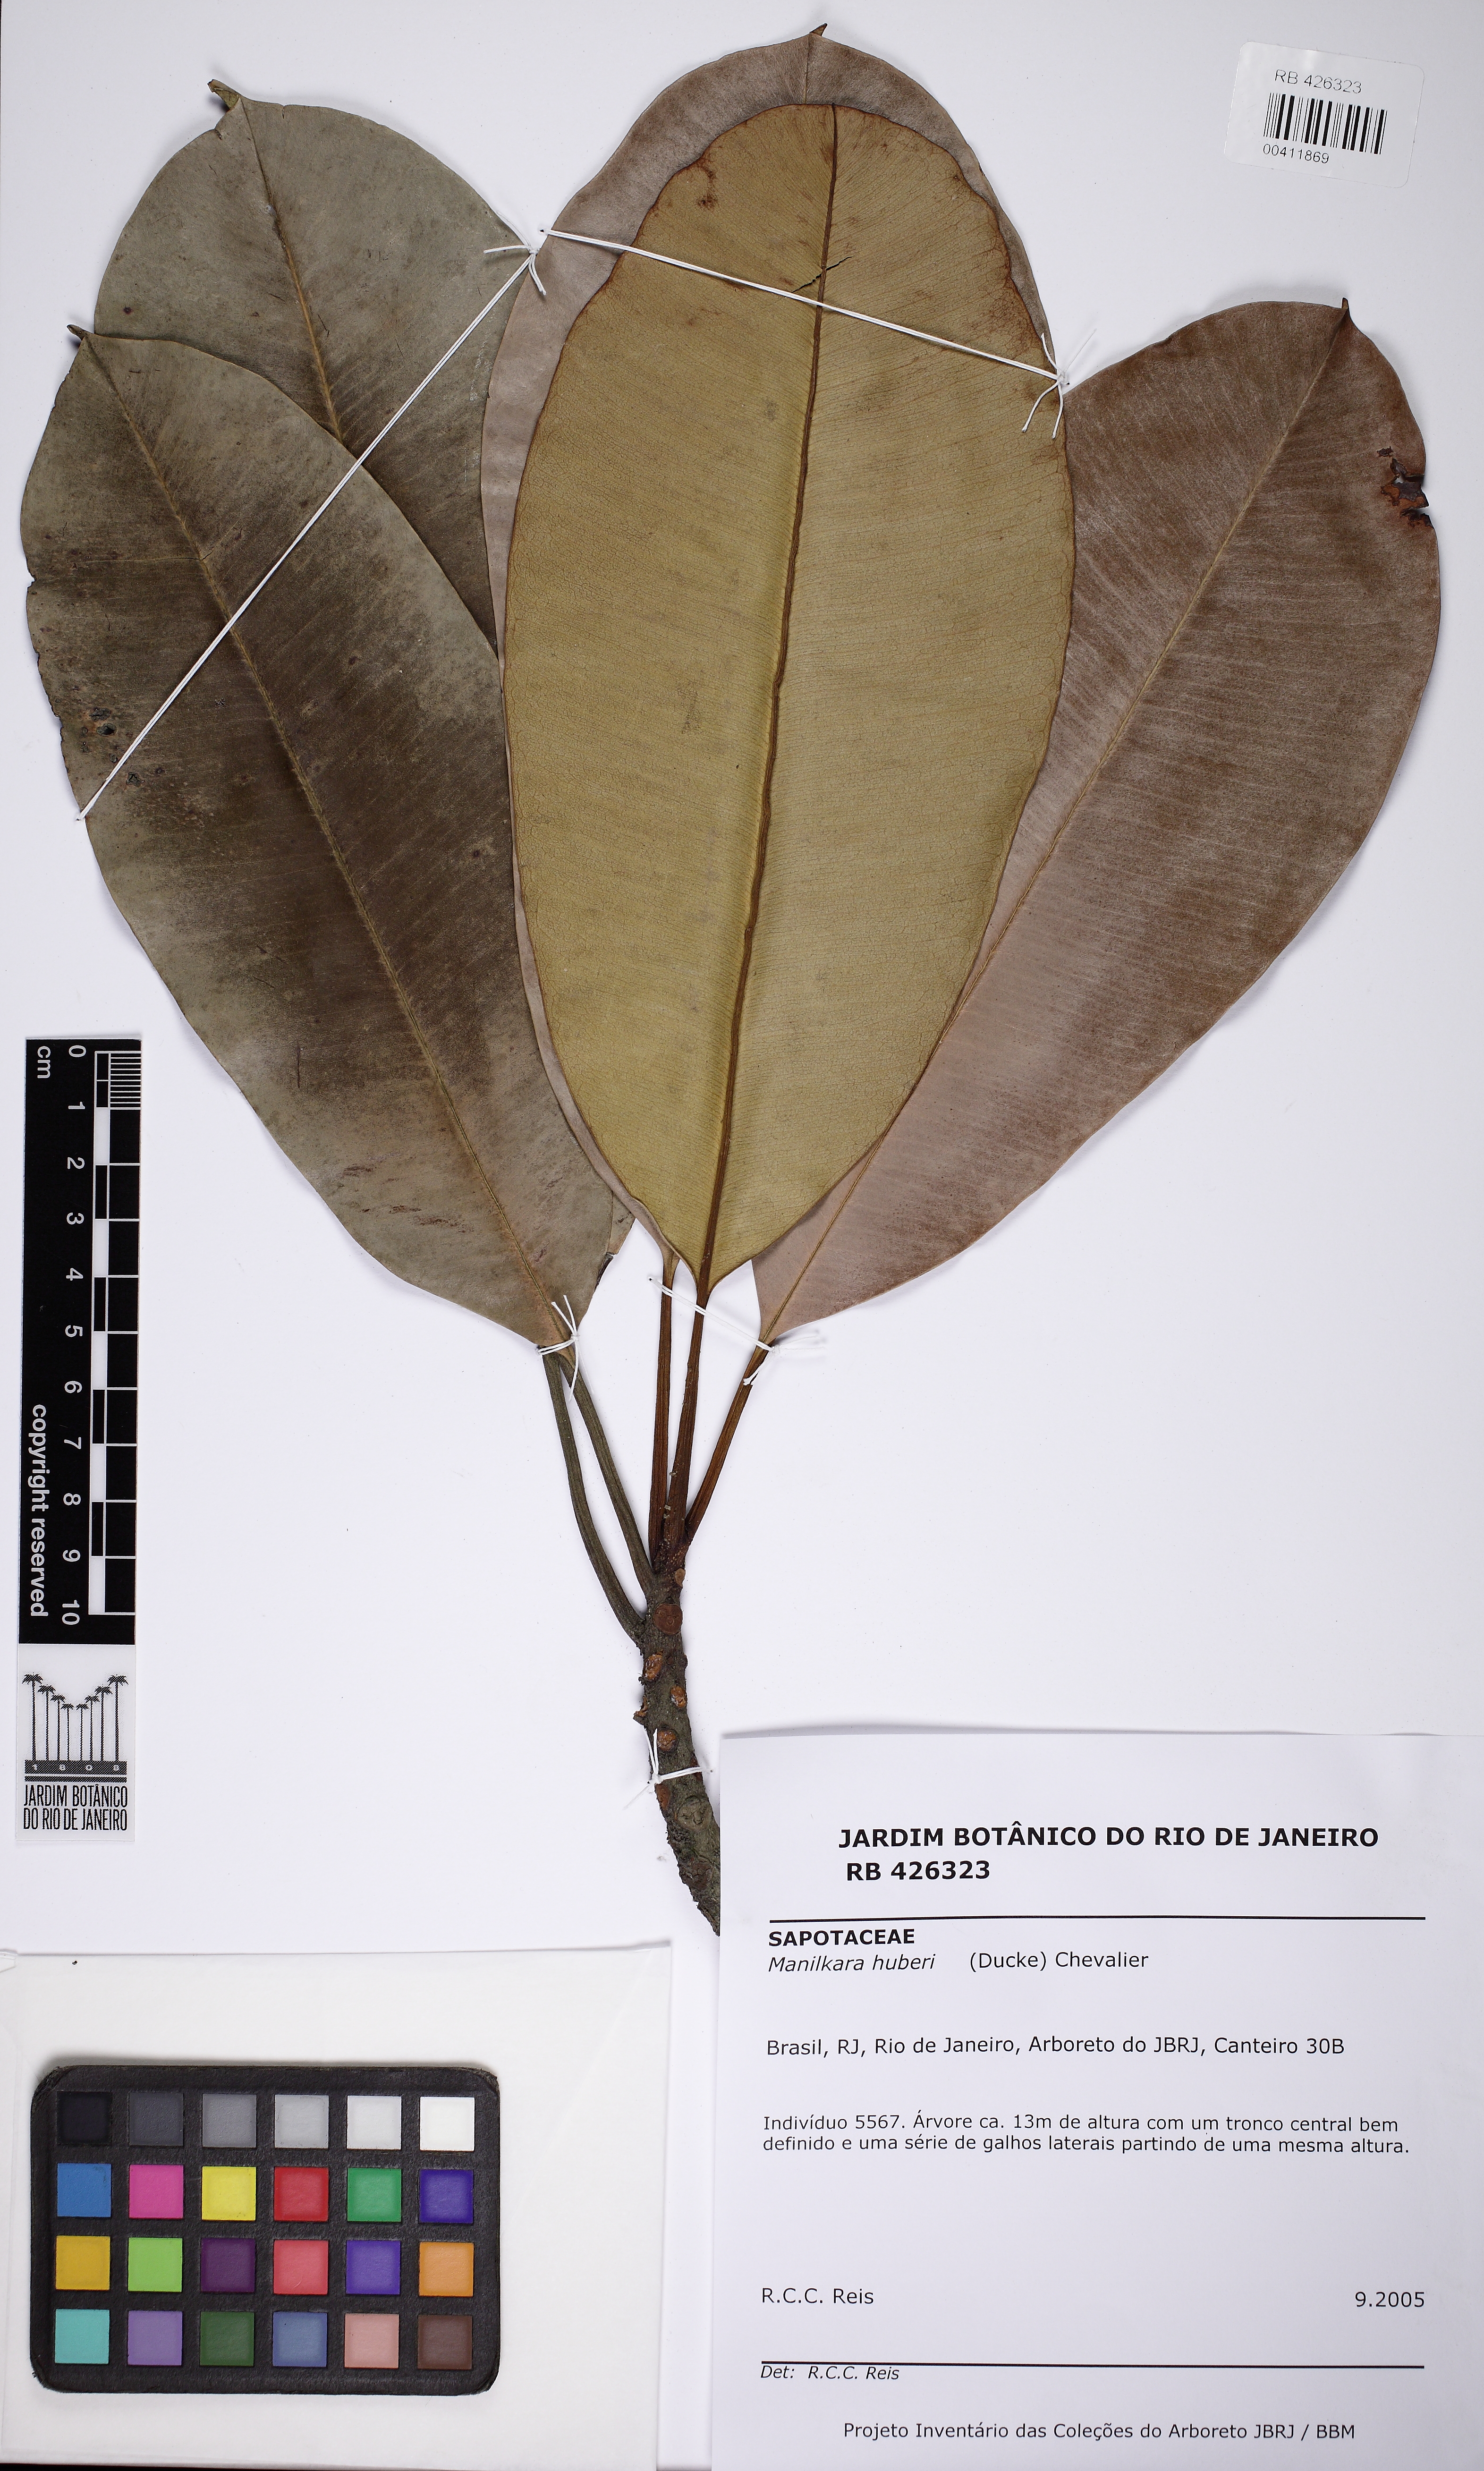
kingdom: Plantae
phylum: Tracheophyta
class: Magnoliopsida
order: Ericales
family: Sapotaceae
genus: Manilkara
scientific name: Manilkara huberi
